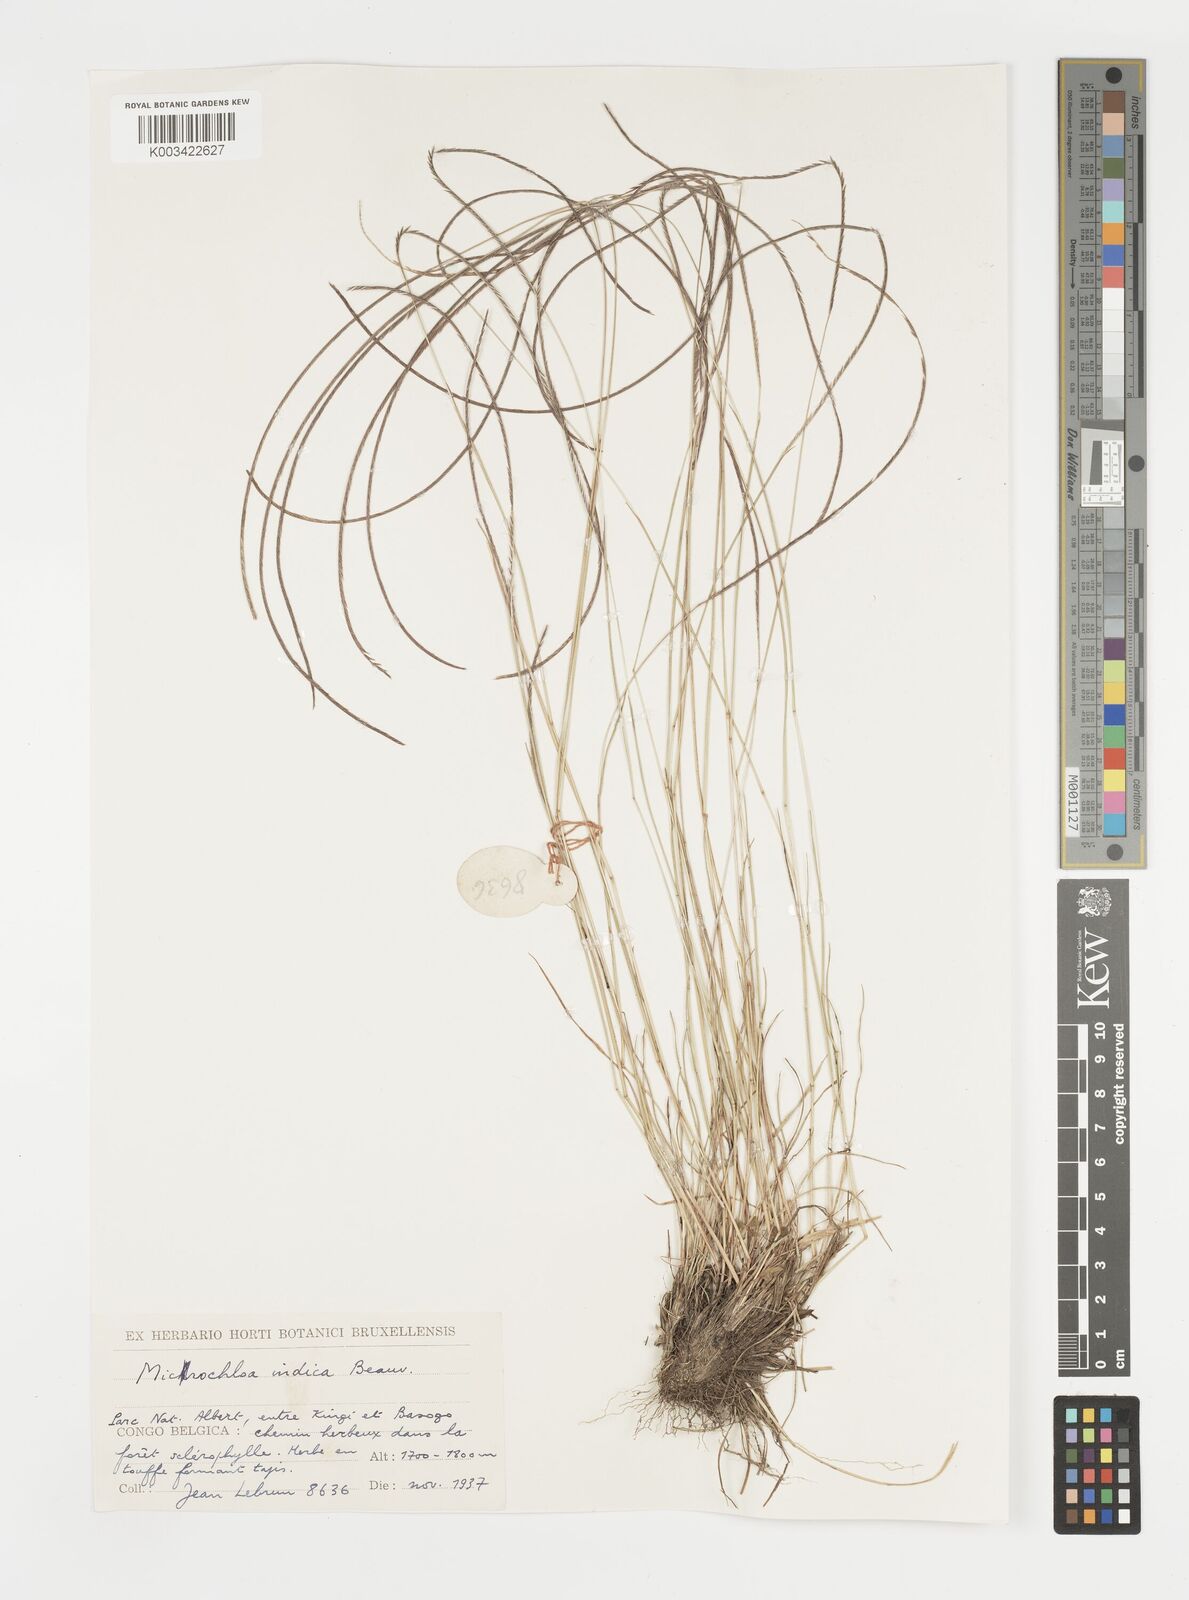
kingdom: Plantae
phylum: Tracheophyta
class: Liliopsida
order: Poales
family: Poaceae
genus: Microchloa
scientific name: Microchloa kunthii
